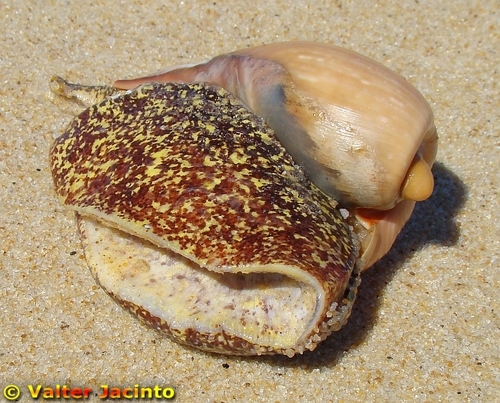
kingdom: Animalia
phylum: Mollusca
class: Gastropoda
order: Neogastropoda
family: Volutidae
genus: Cymbium
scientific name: Cymbium olla
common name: Algarve volute
